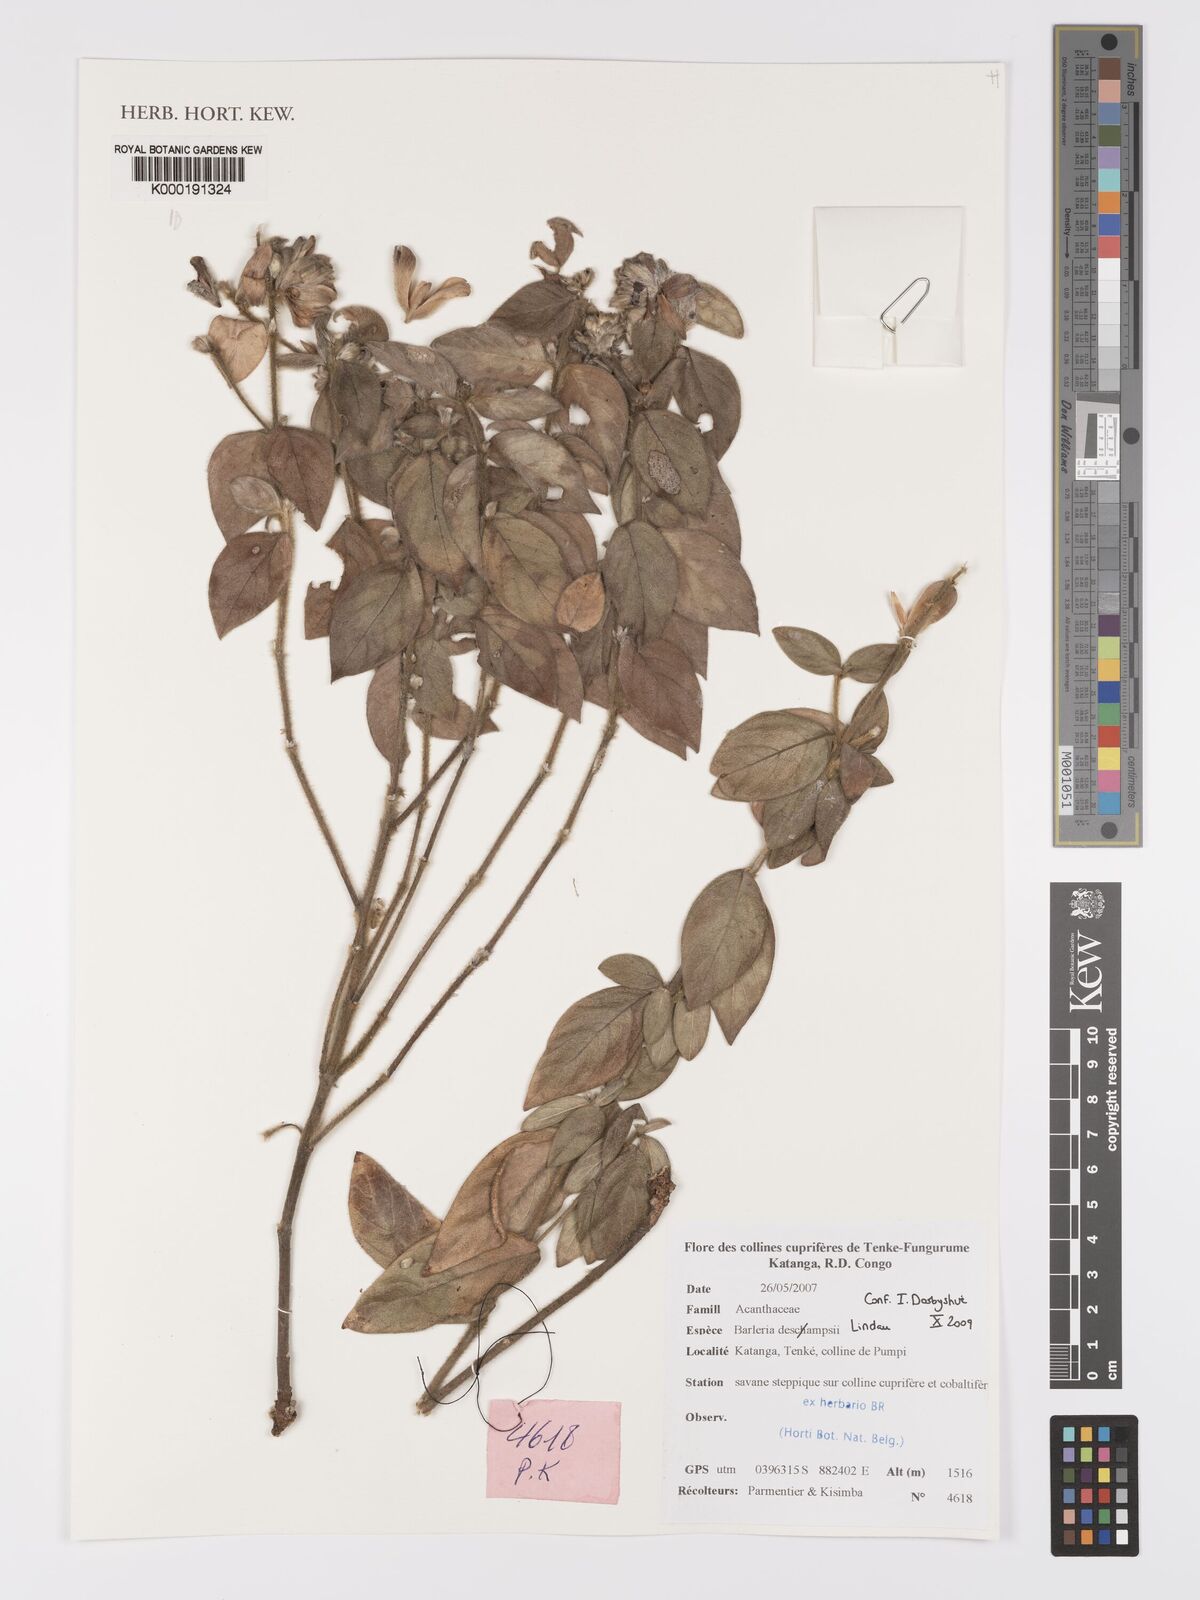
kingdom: Plantae
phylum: Tracheophyta
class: Magnoliopsida
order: Lamiales
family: Acanthaceae
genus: Barleria
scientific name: Barleria descampsii
